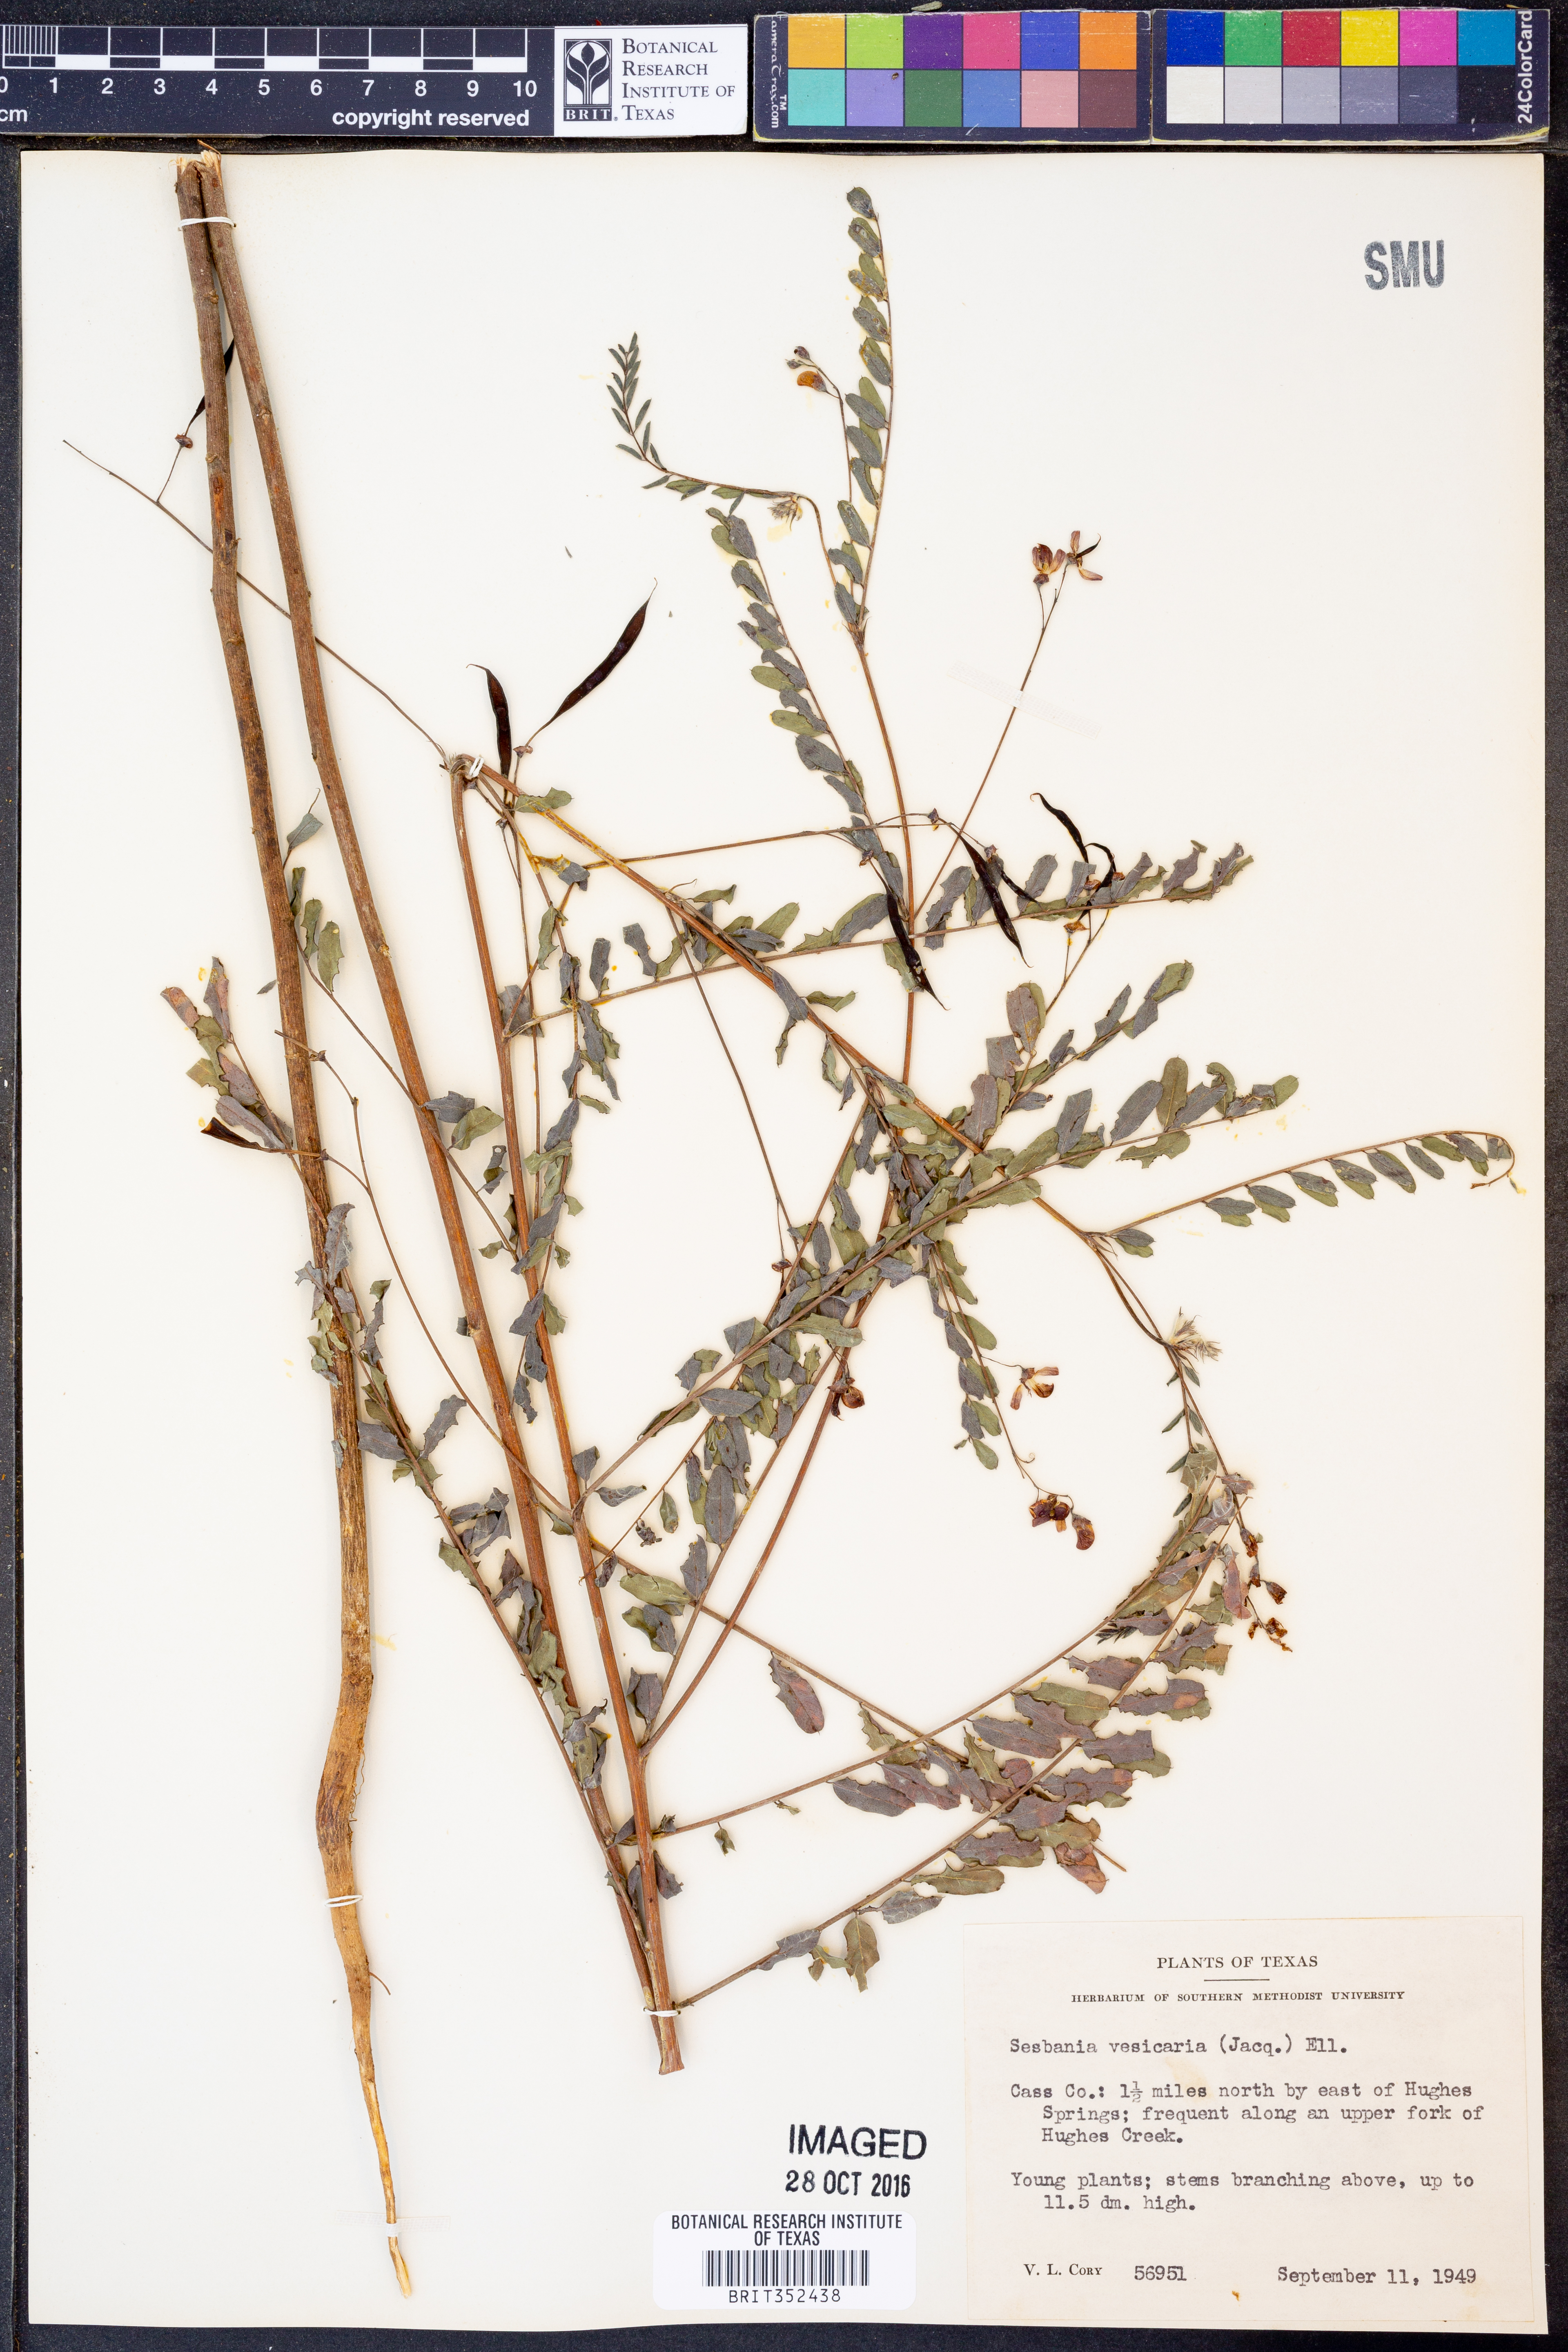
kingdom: Plantae
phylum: Tracheophyta
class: Magnoliopsida
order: Fabales
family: Fabaceae
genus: Sesbania
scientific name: Sesbania vesicaria
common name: Bagpod
